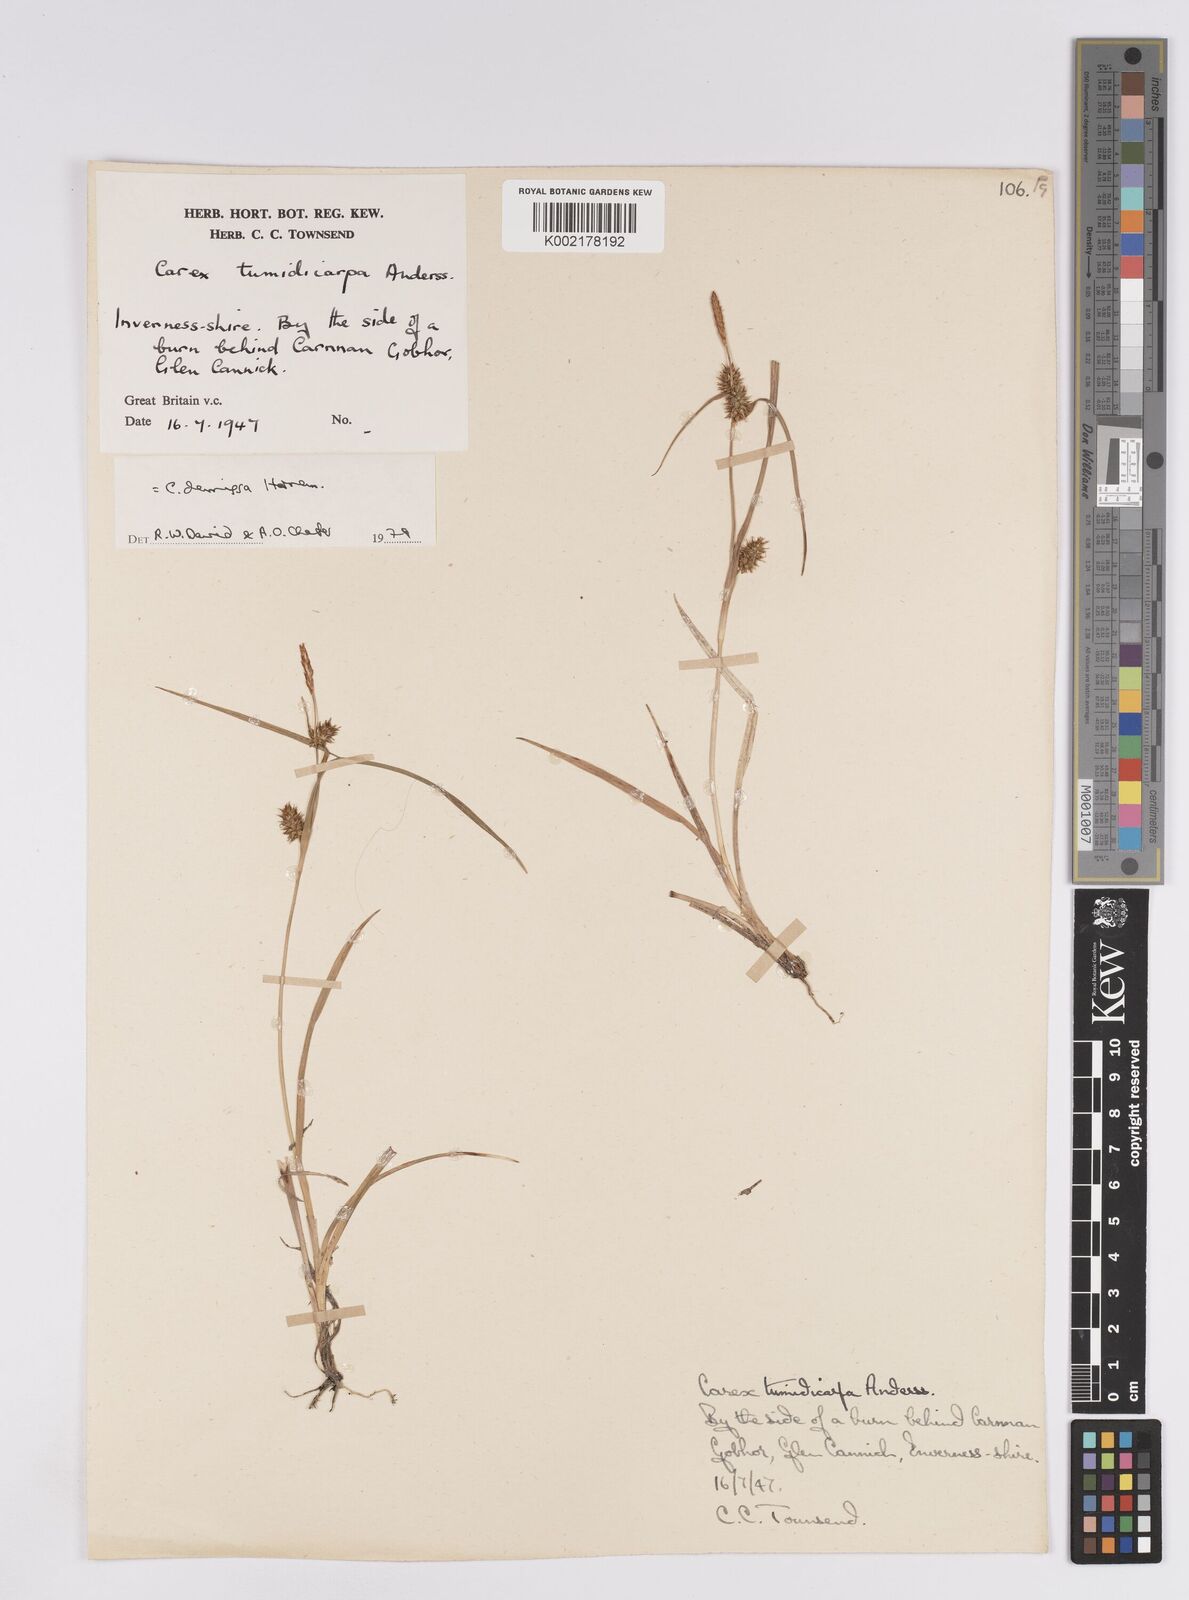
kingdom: Plantae
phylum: Tracheophyta
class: Liliopsida
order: Poales
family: Cyperaceae
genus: Carex
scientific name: Carex demissa
